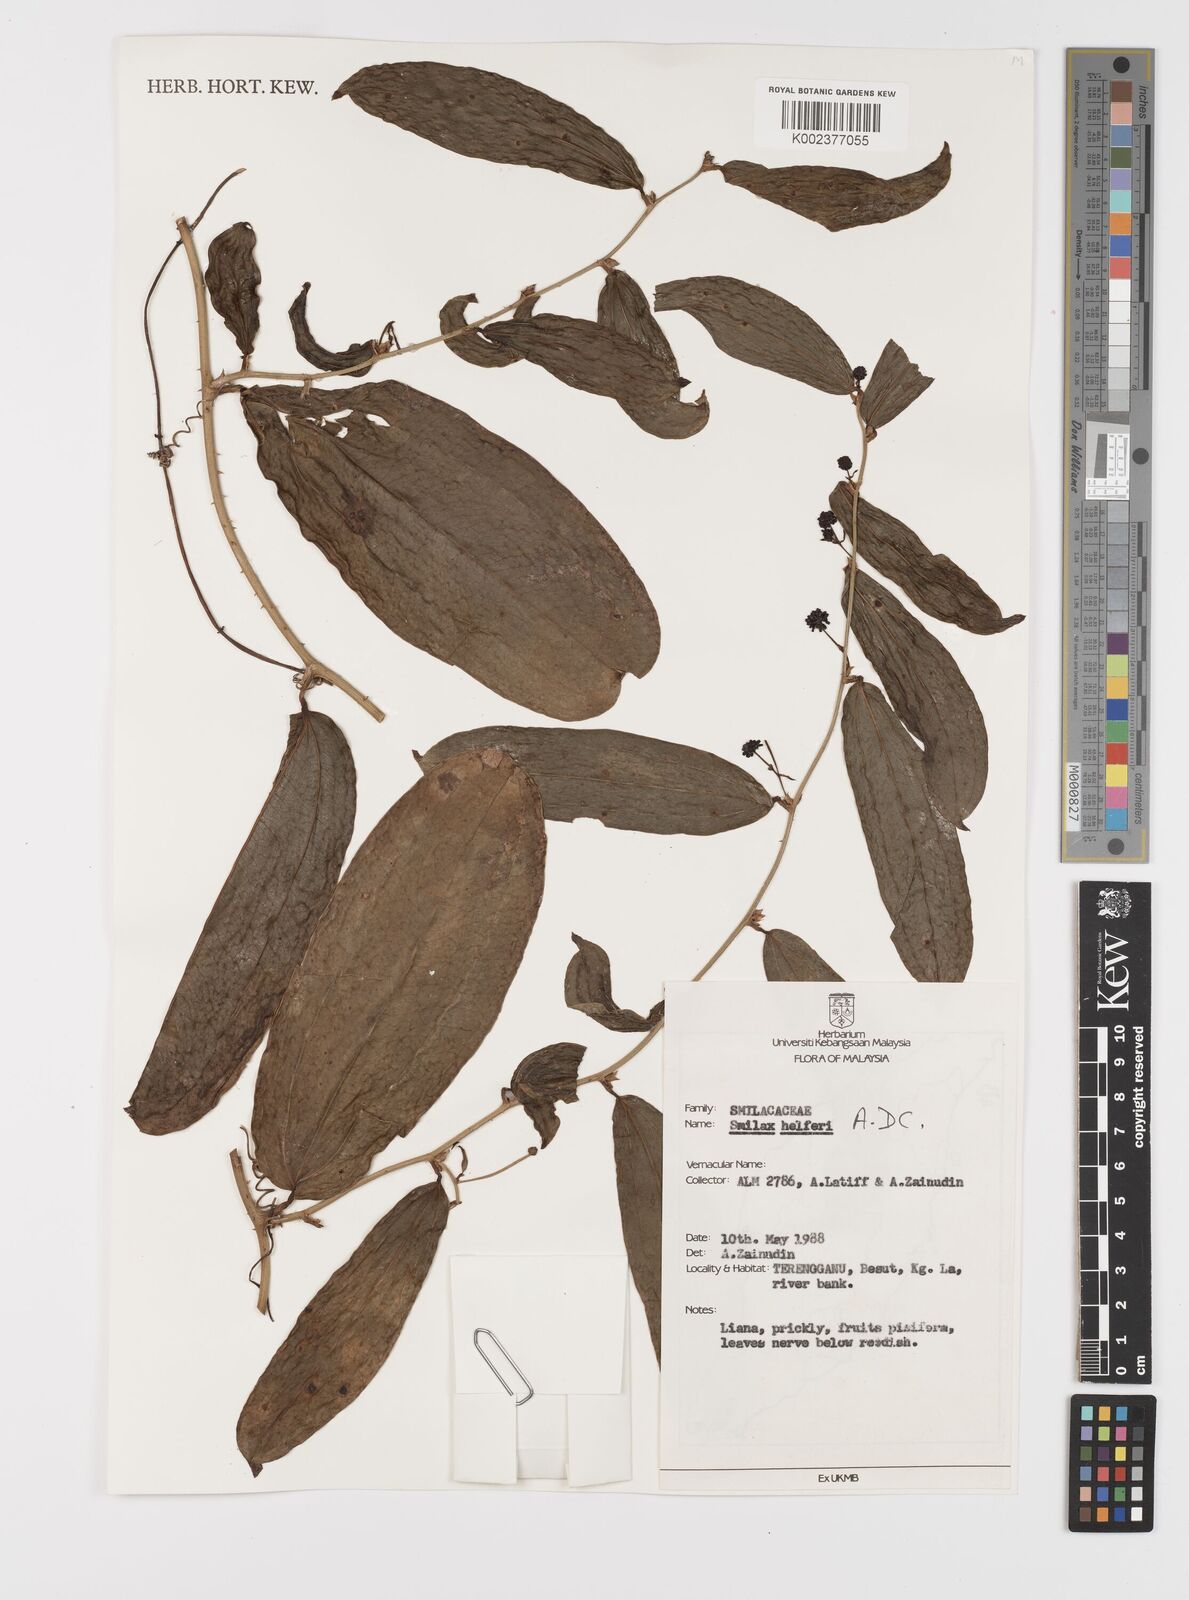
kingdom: Plantae
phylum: Tracheophyta
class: Liliopsida
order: Liliales
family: Smilacaceae
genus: Smilax
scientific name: Smilax luzonensis
